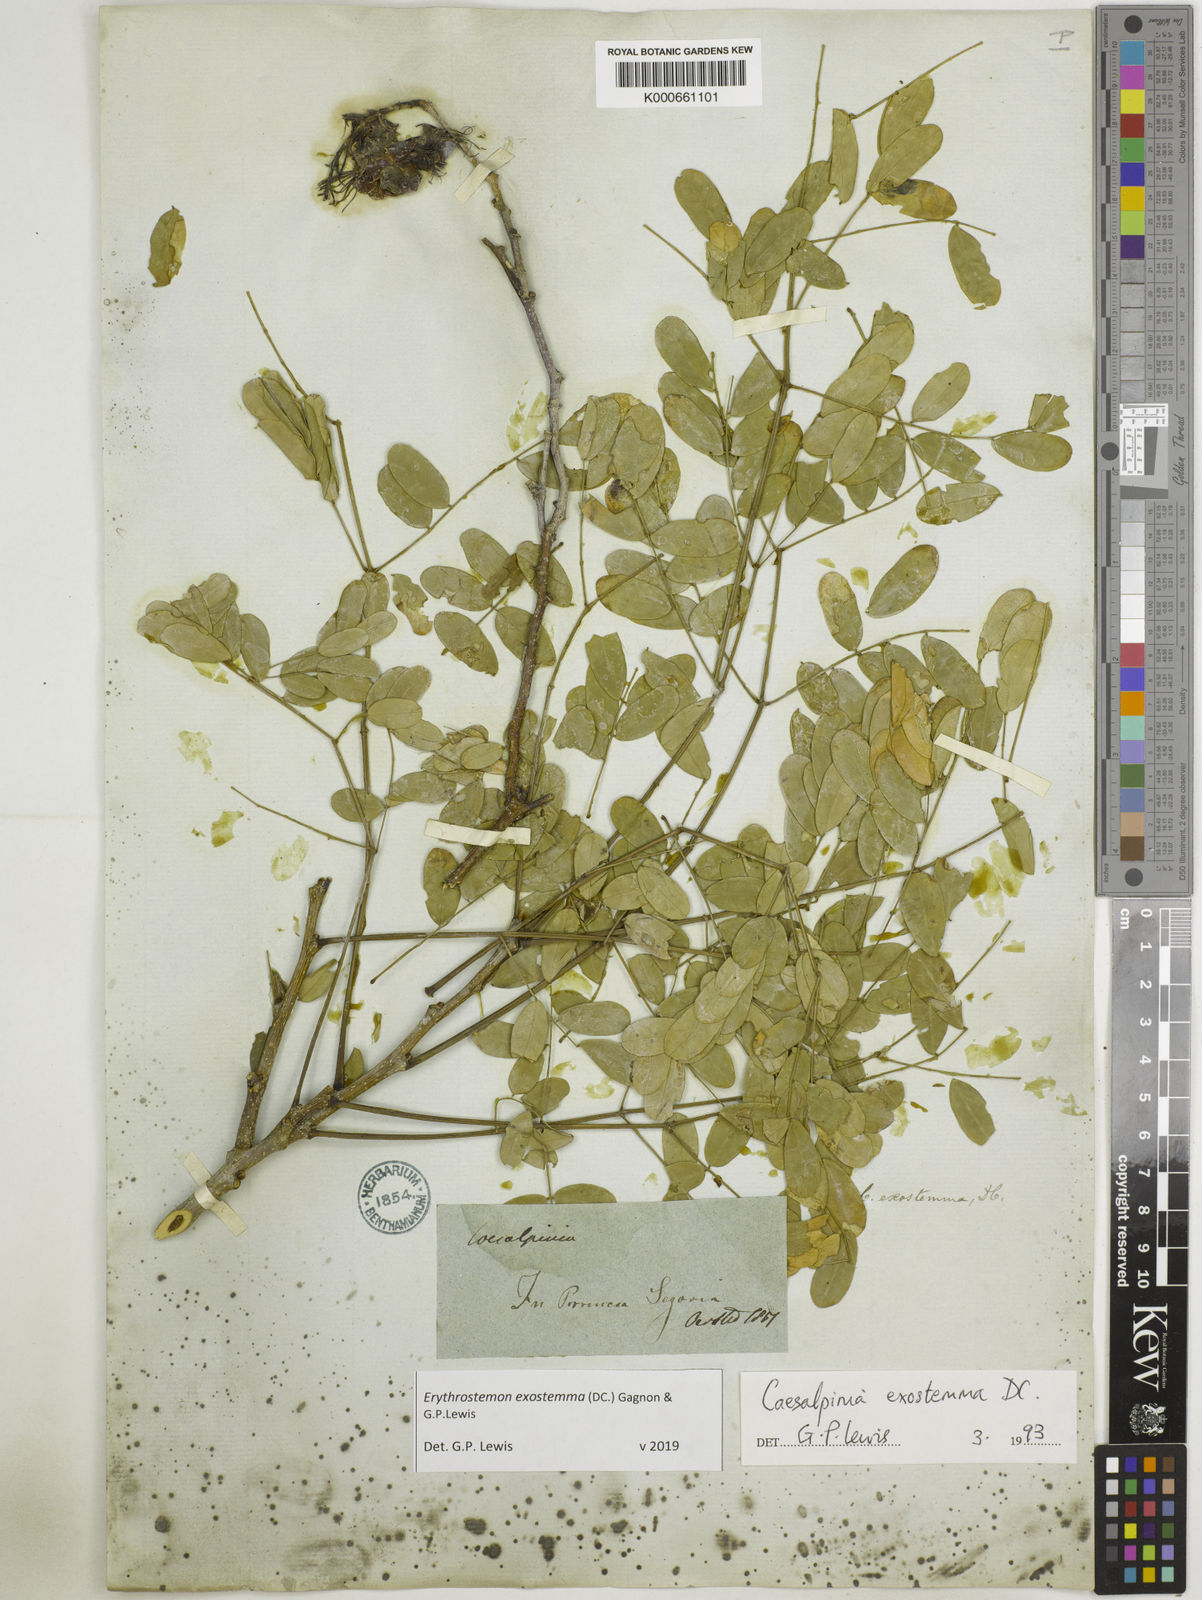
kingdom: Plantae
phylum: Tracheophyta
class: Magnoliopsida
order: Fabales
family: Fabaceae
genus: Erythrostemon
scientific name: Erythrostemon exostemma
